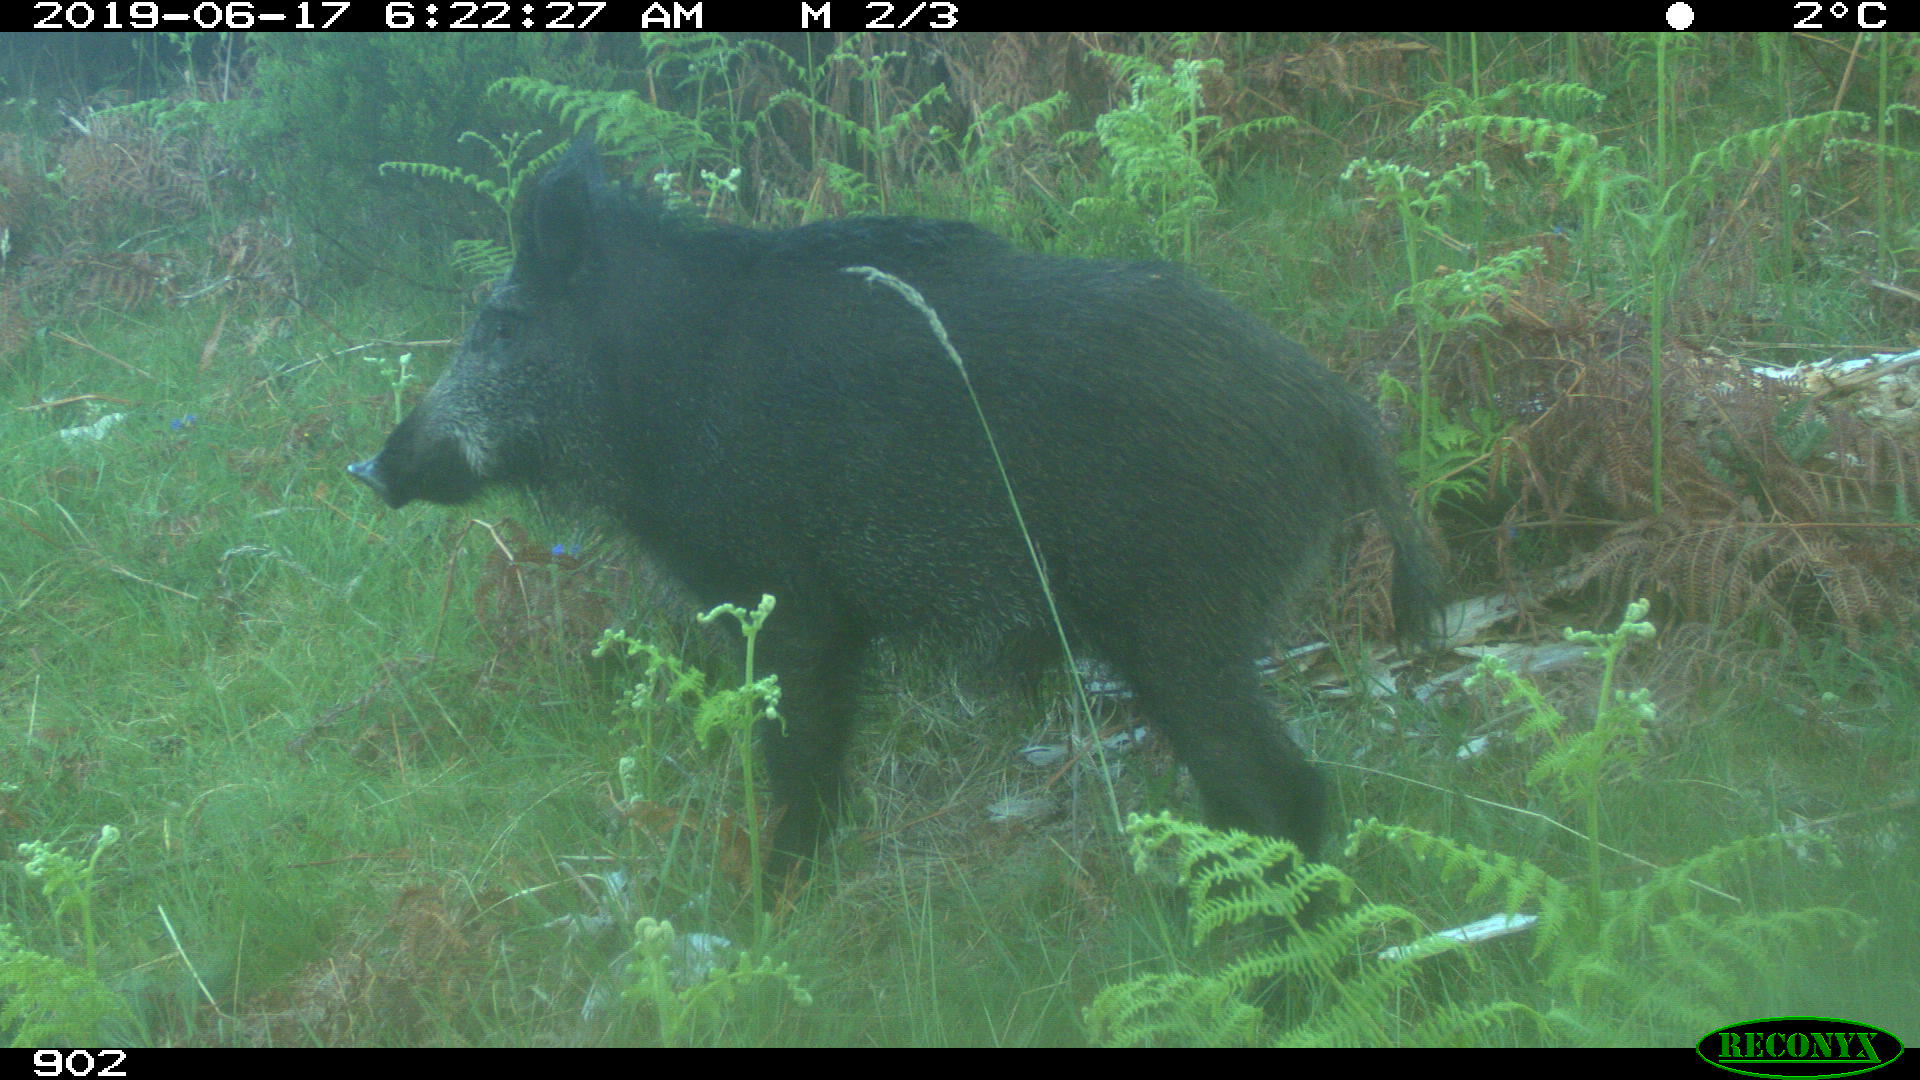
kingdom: Animalia
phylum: Chordata
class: Mammalia
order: Artiodactyla
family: Suidae
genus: Sus
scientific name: Sus scrofa
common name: Wild boar
